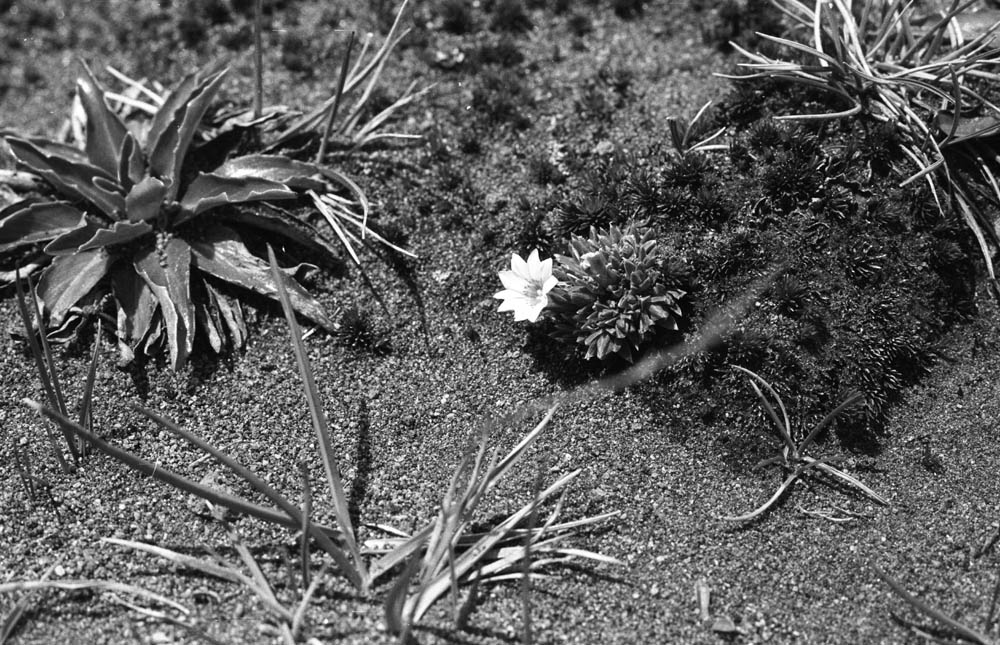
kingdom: Plantae
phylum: Tracheophyta
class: Magnoliopsida
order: Gentianales
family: Gentianaceae
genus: Gentiana
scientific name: Gentiana sedifolia
